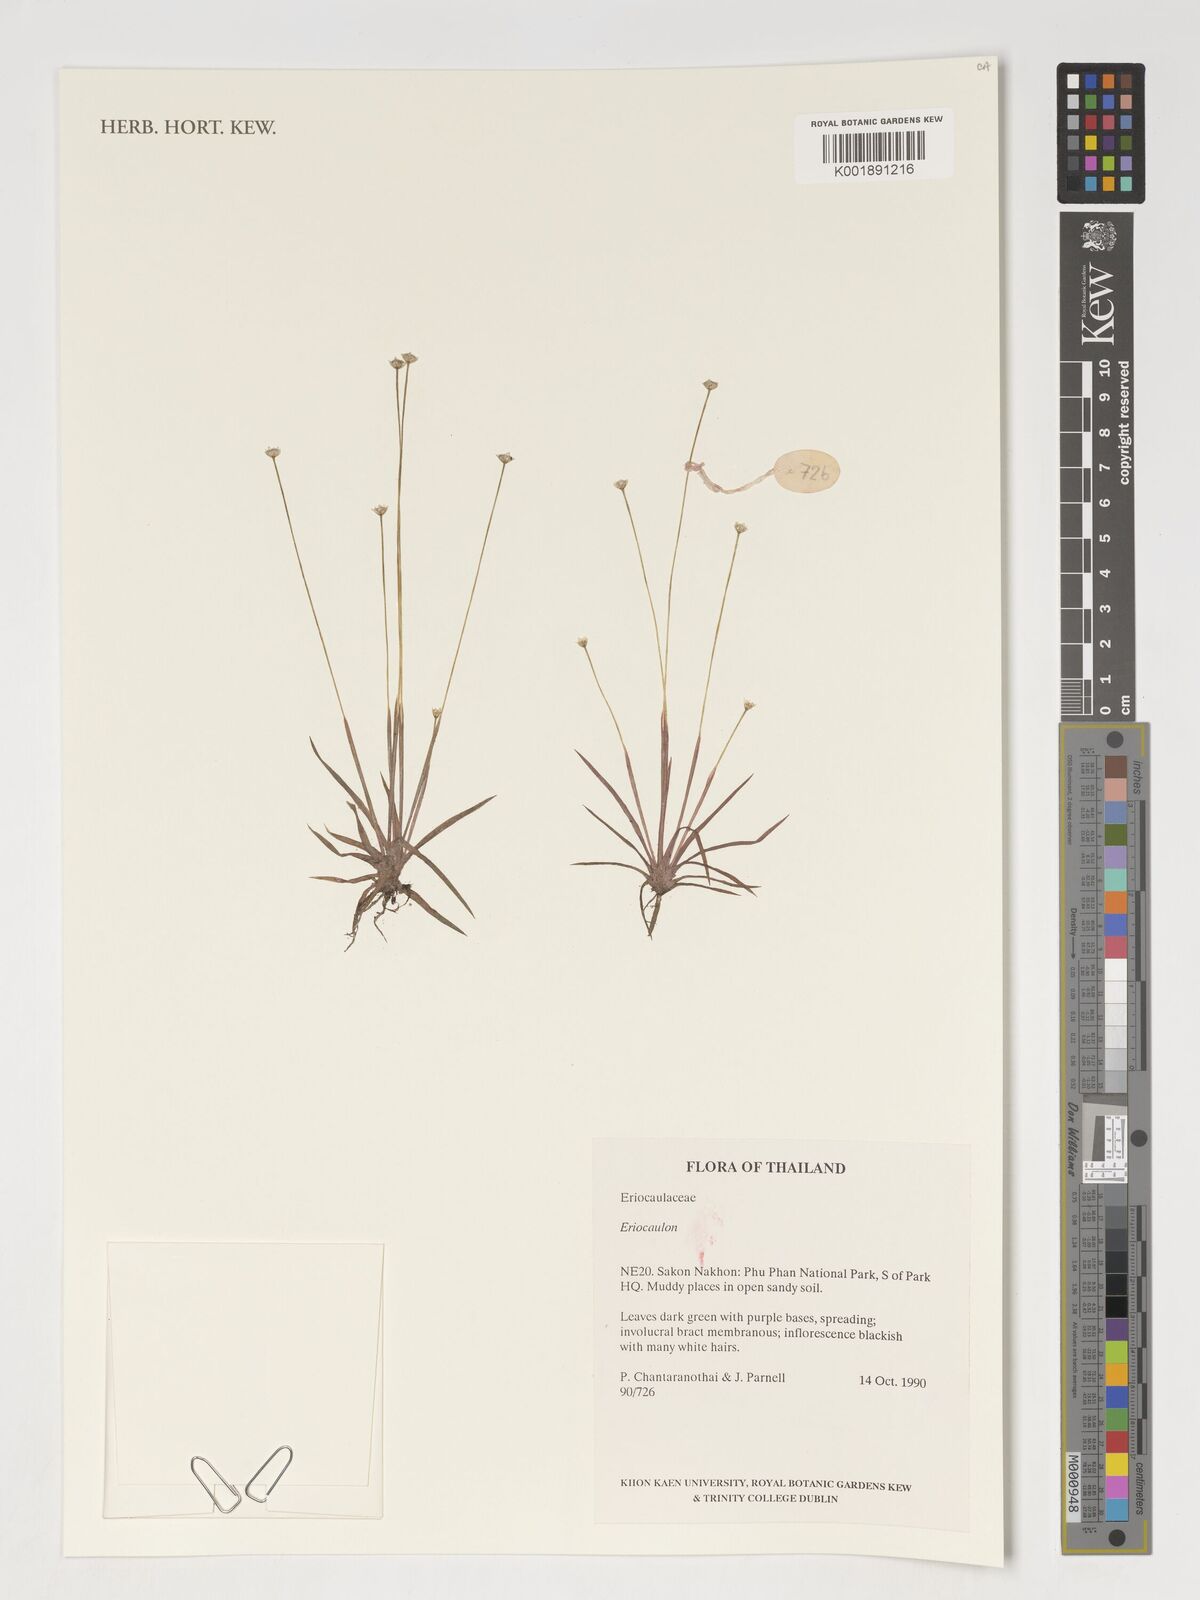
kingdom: Plantae
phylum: Tracheophyta
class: Liliopsida
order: Poales
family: Eriocaulaceae
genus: Eriocaulon
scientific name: Eriocaulon
